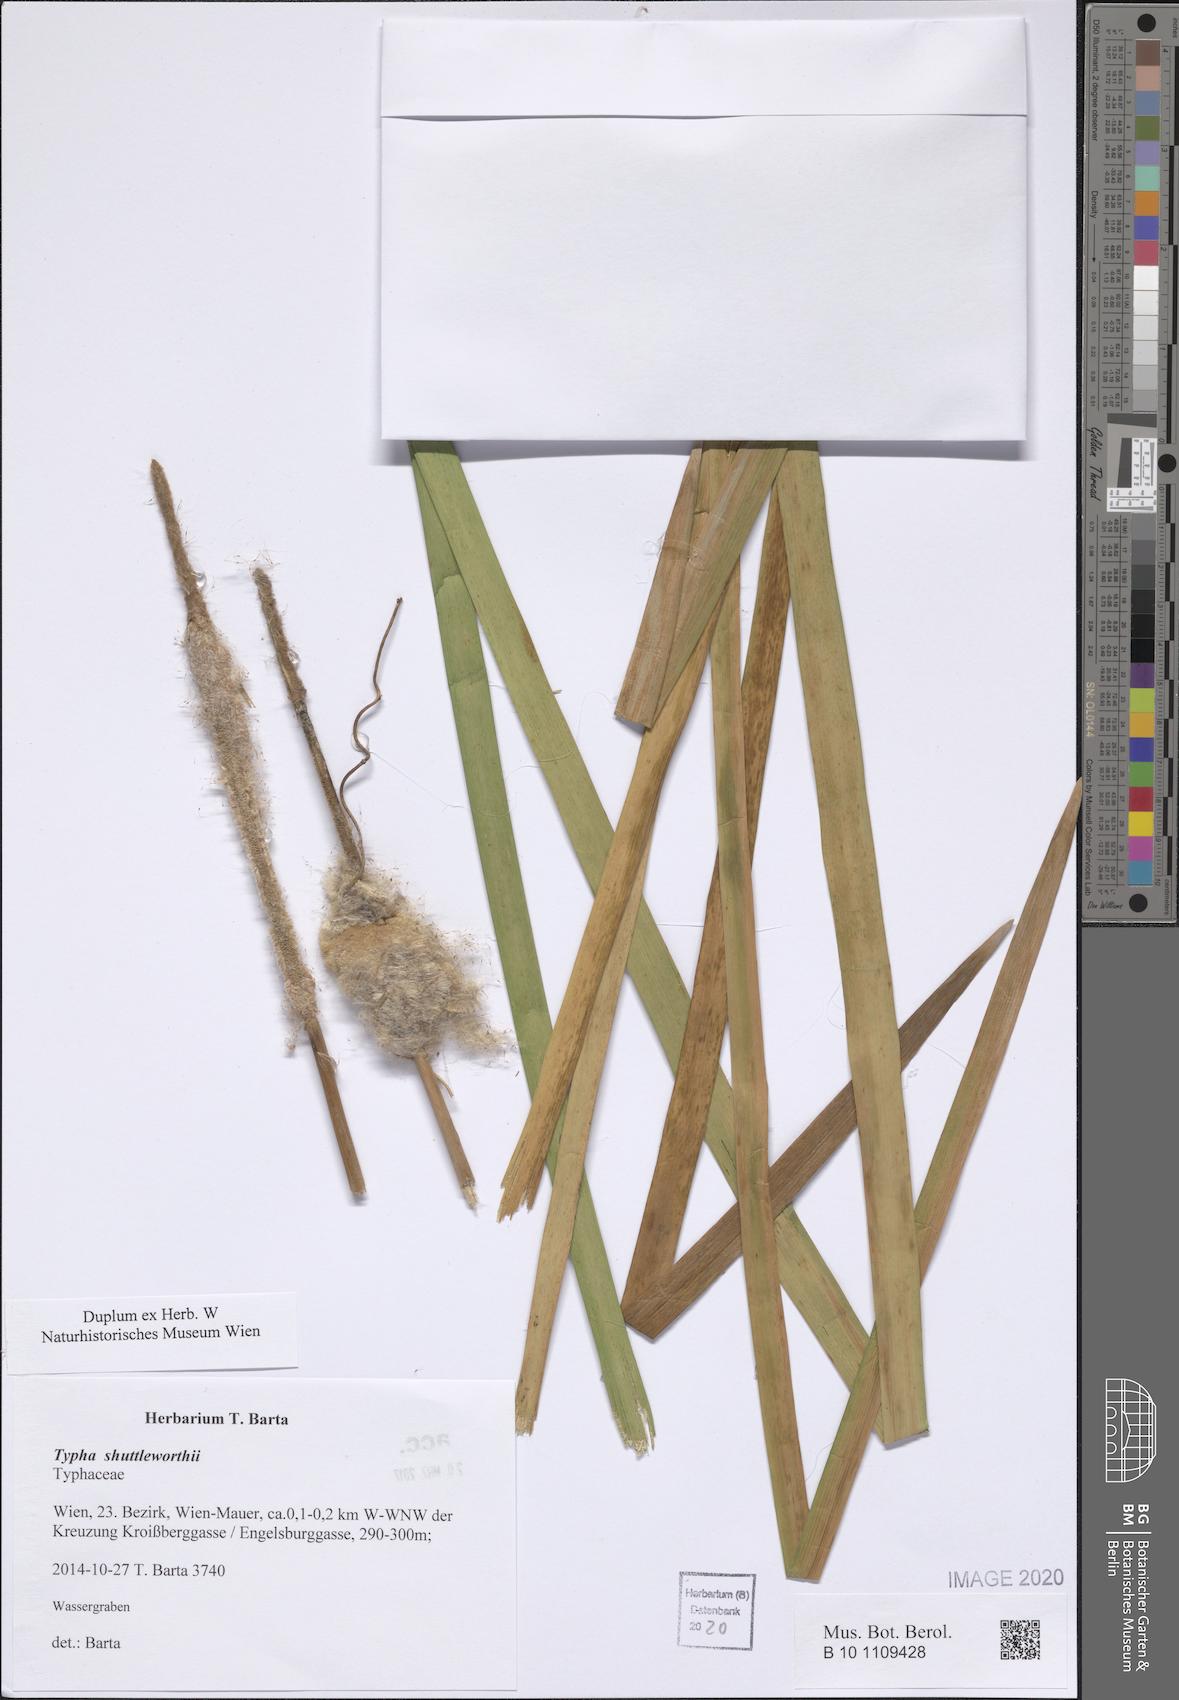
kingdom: Plantae
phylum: Tracheophyta
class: Liliopsida
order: Poales
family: Typhaceae
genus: Typha
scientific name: Typha shuttleworthii
